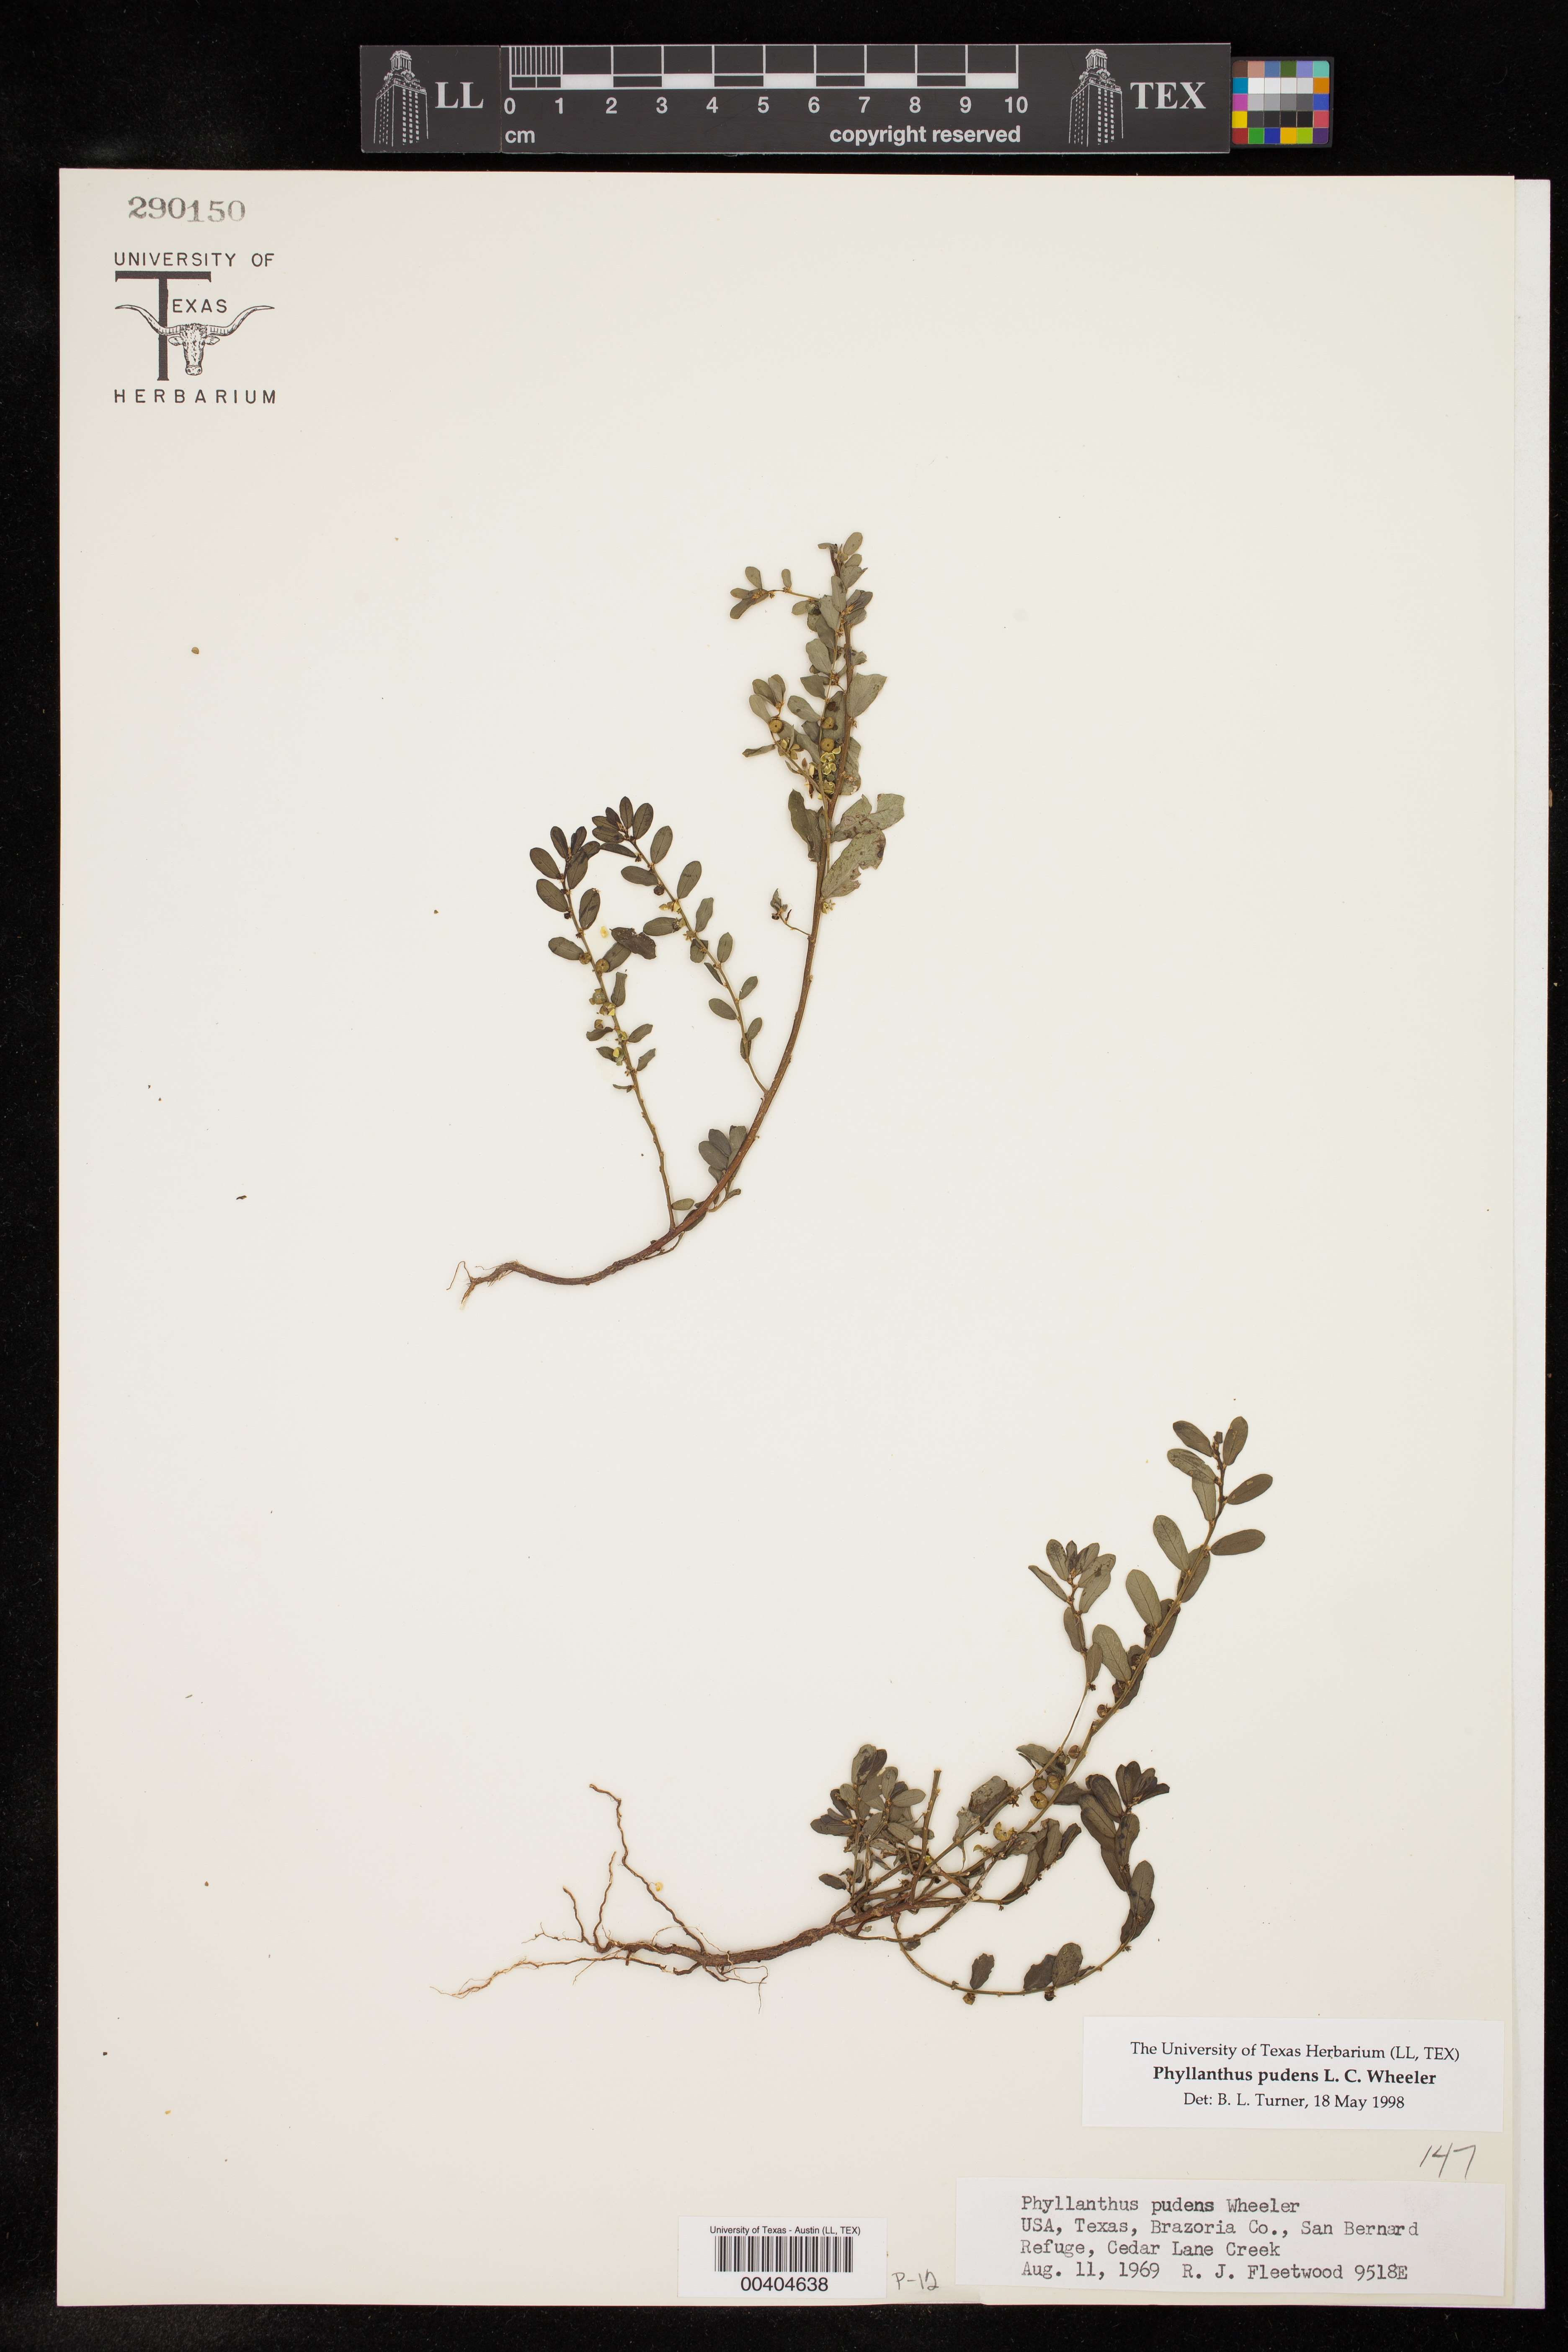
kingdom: Plantae
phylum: Tracheophyta
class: Magnoliopsida
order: Malpighiales
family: Phyllanthaceae
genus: Phyllanthus
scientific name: Phyllanthus evanescens
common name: Birdseed leaf-flower
